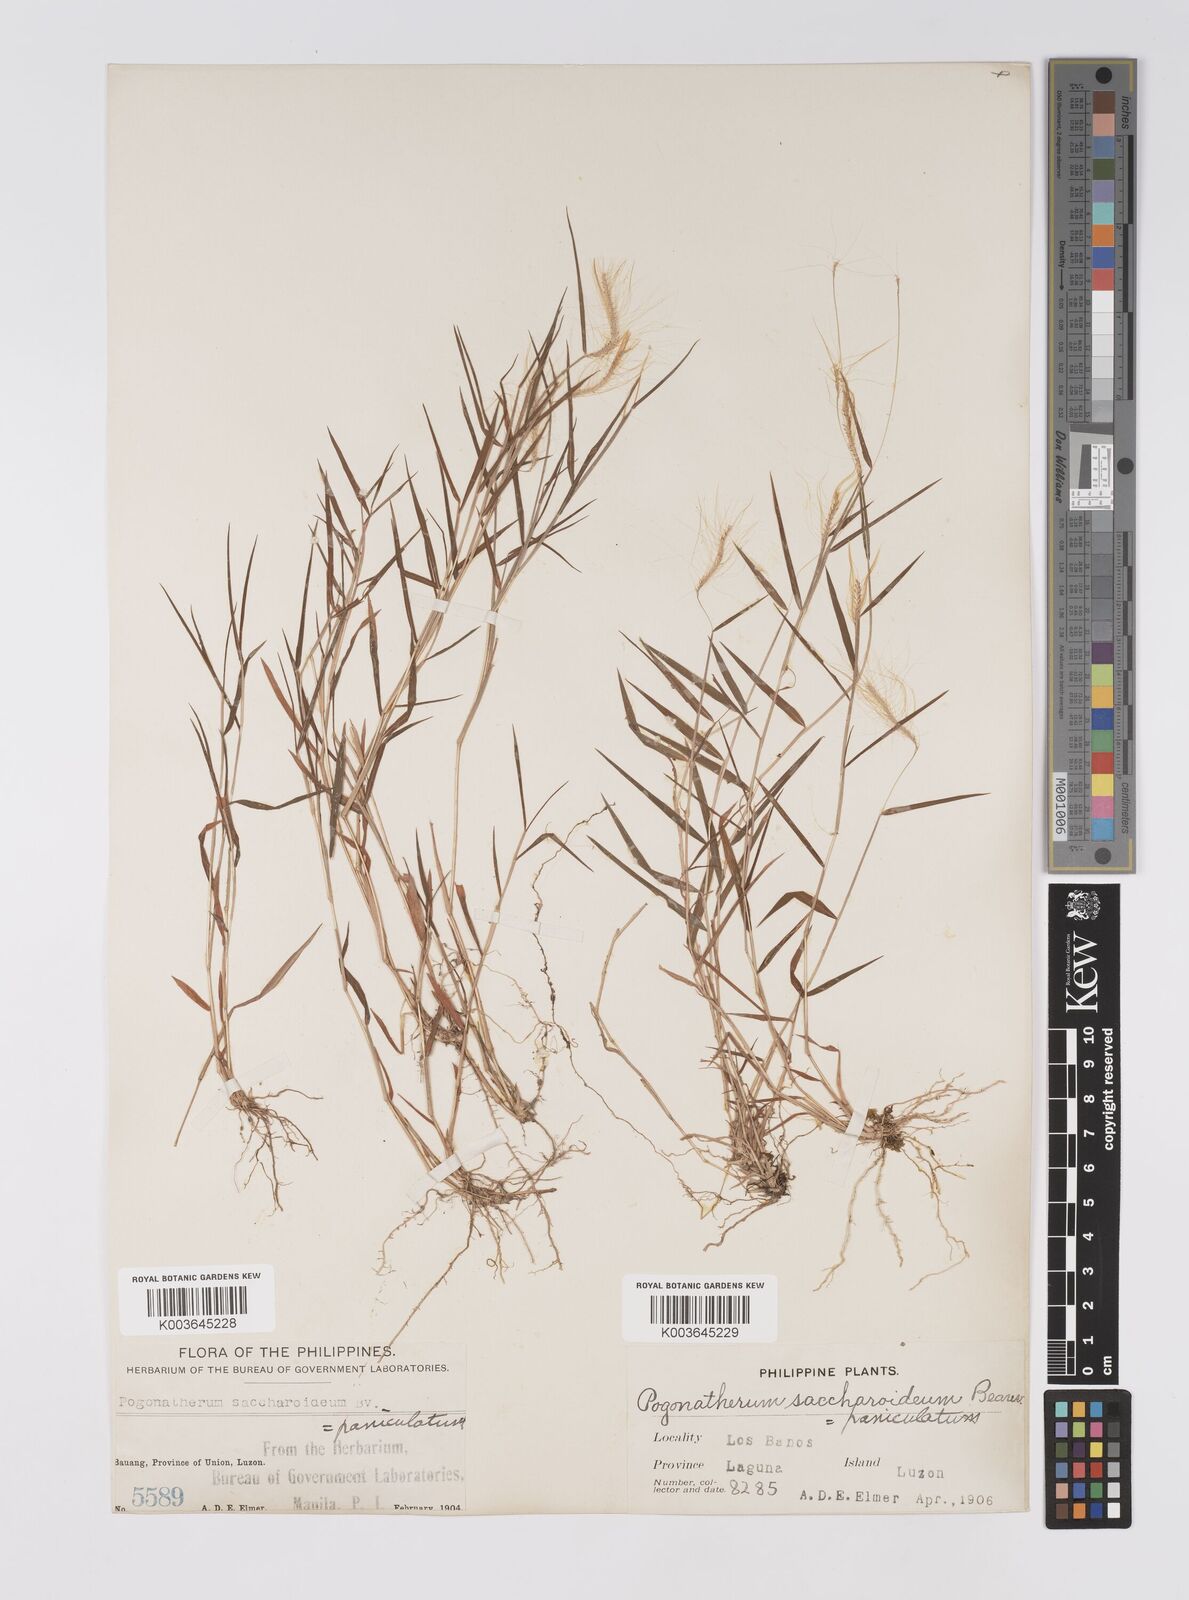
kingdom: Plantae
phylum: Tracheophyta
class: Liliopsida
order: Poales
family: Poaceae
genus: Pogonatherum
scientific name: Pogonatherum crinitum
